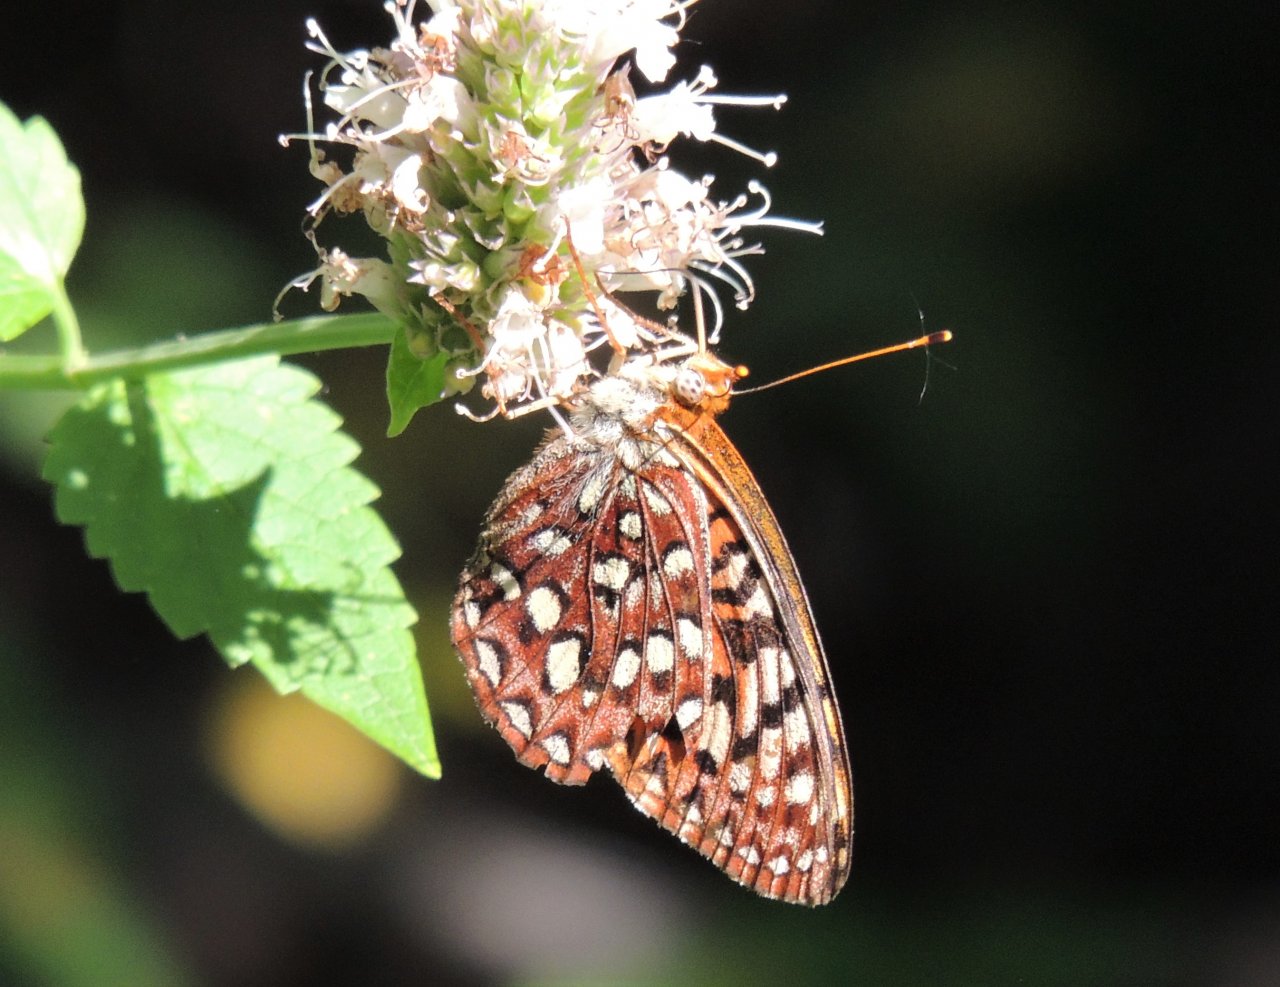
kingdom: Animalia
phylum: Arthropoda
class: Insecta
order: Lepidoptera
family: Nymphalidae
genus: Speyeria
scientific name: Speyeria hydaspe
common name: Hydaspe Fritillary
